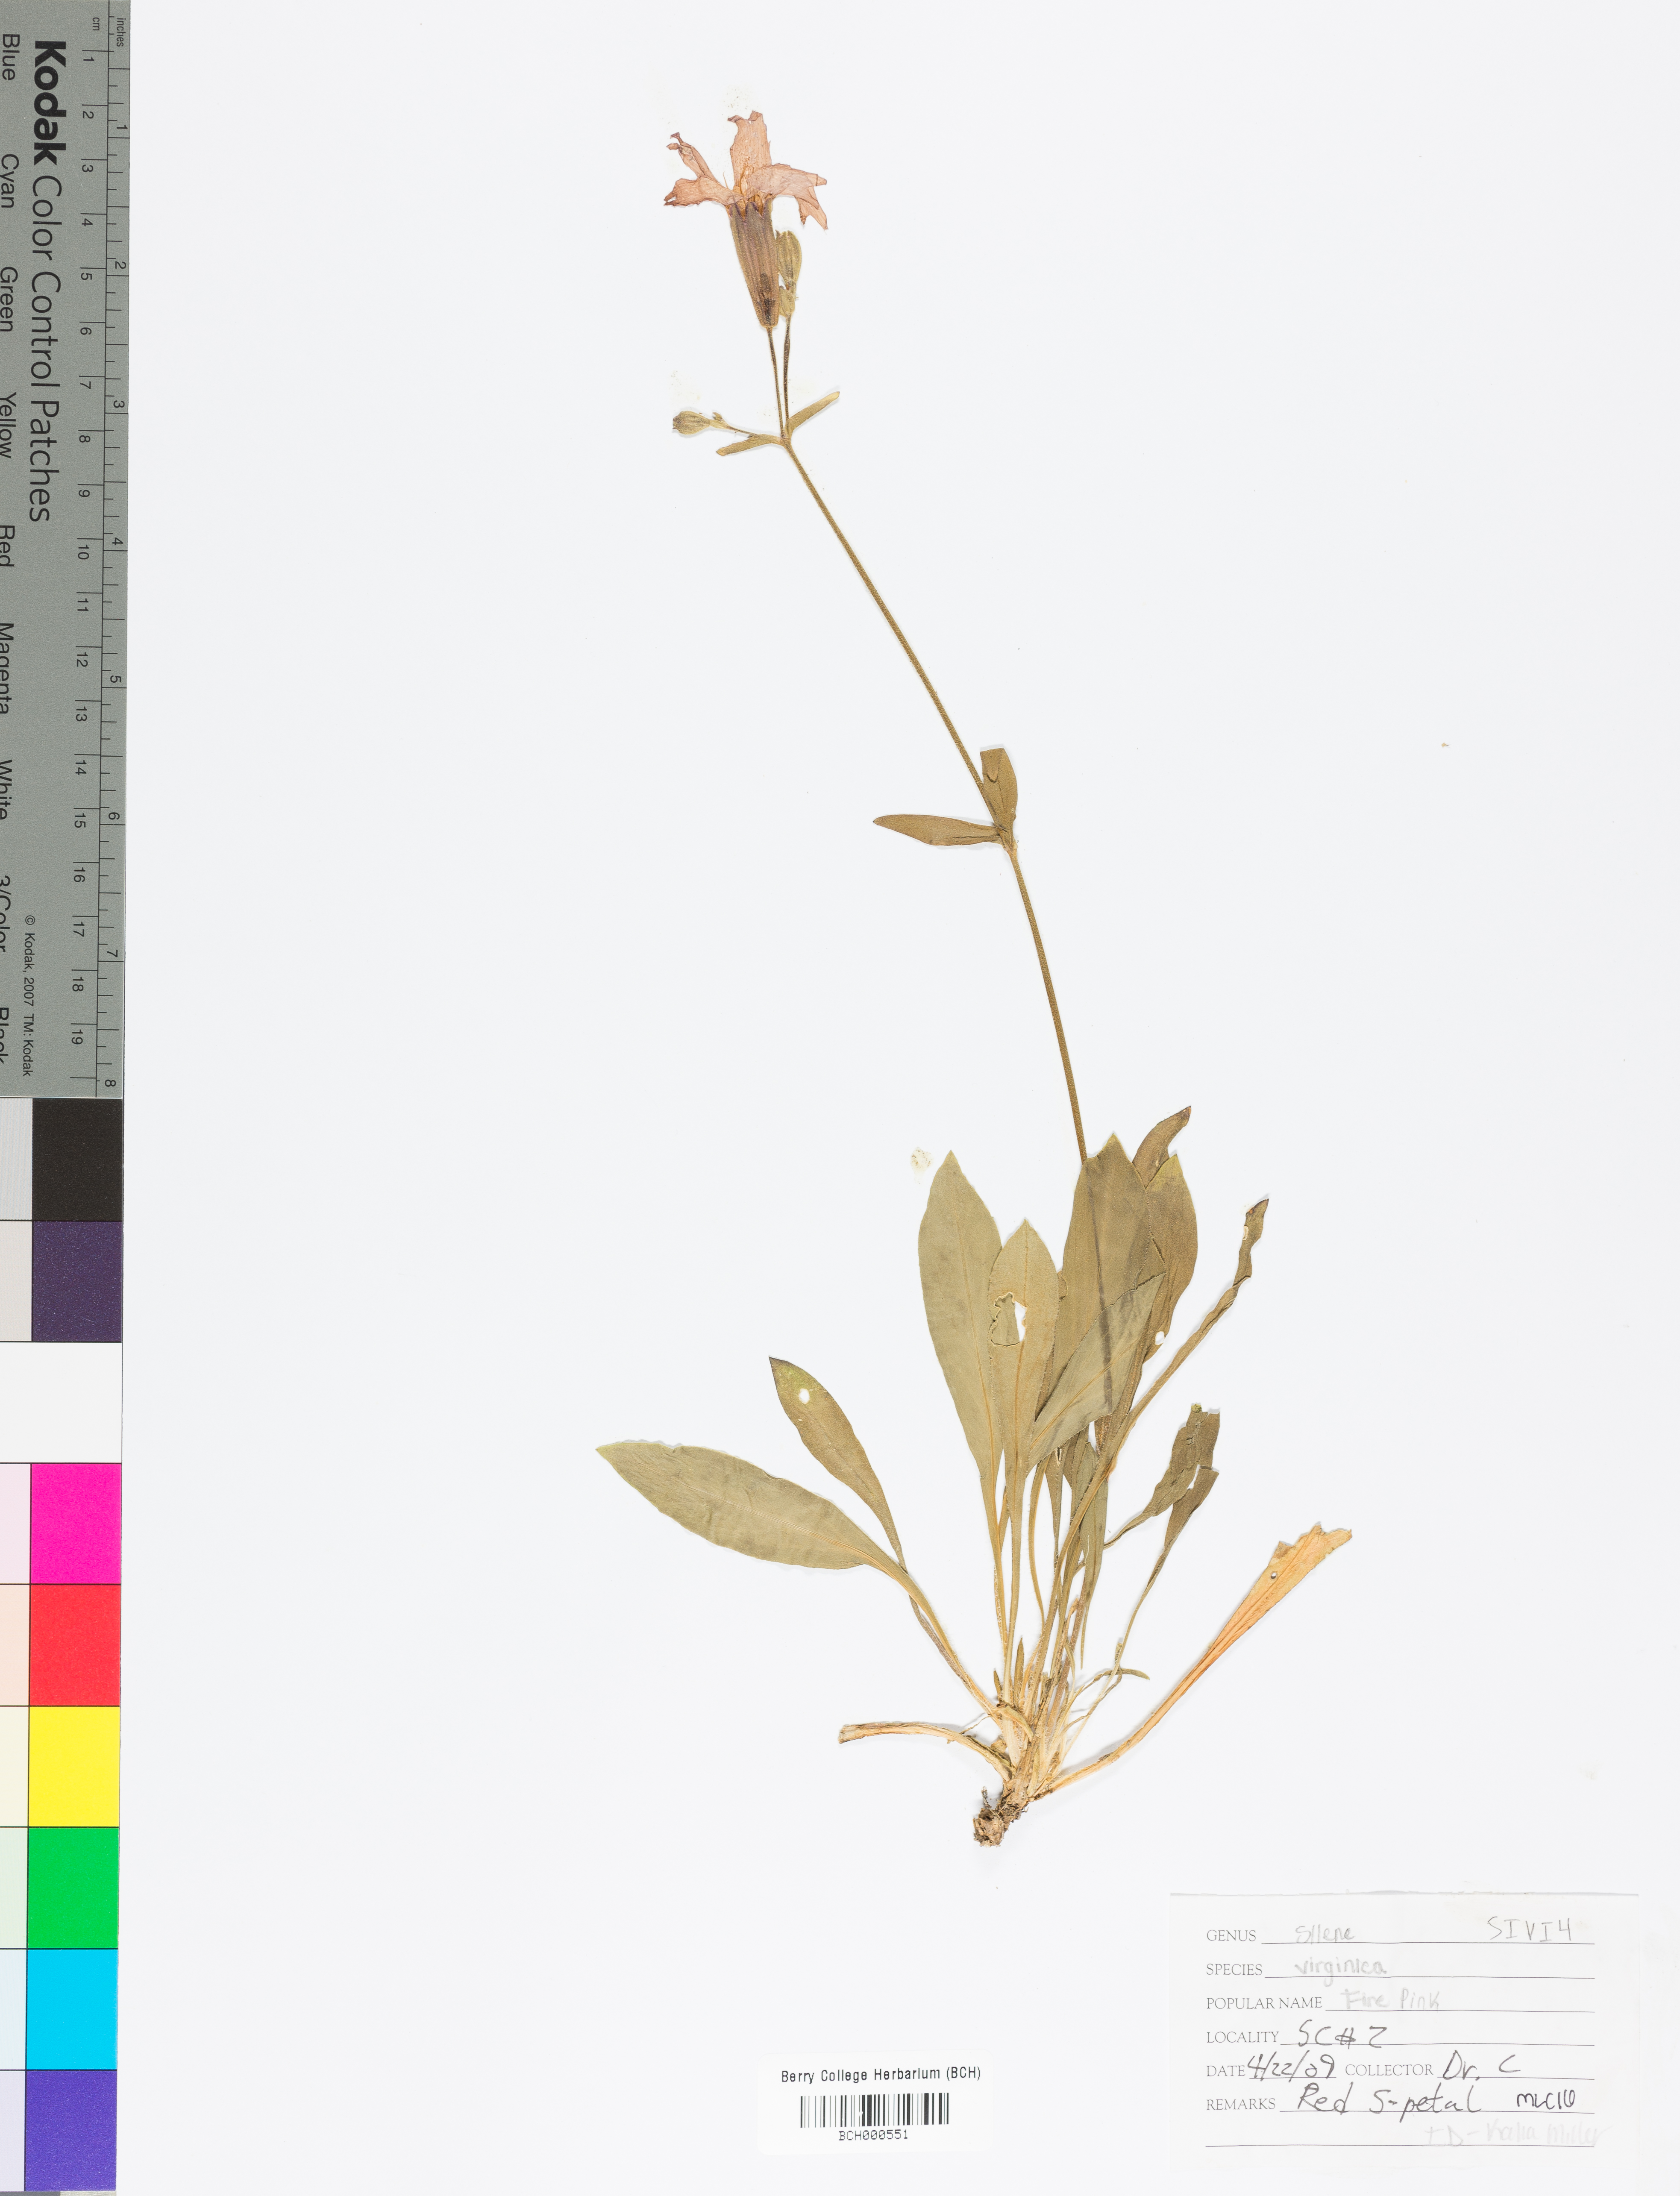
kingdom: Plantae
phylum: Tracheophyta
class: Magnoliopsida
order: Caryophyllales
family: Caryophyllaceae
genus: Silene
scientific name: Silene virginica
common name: Fire-pink
